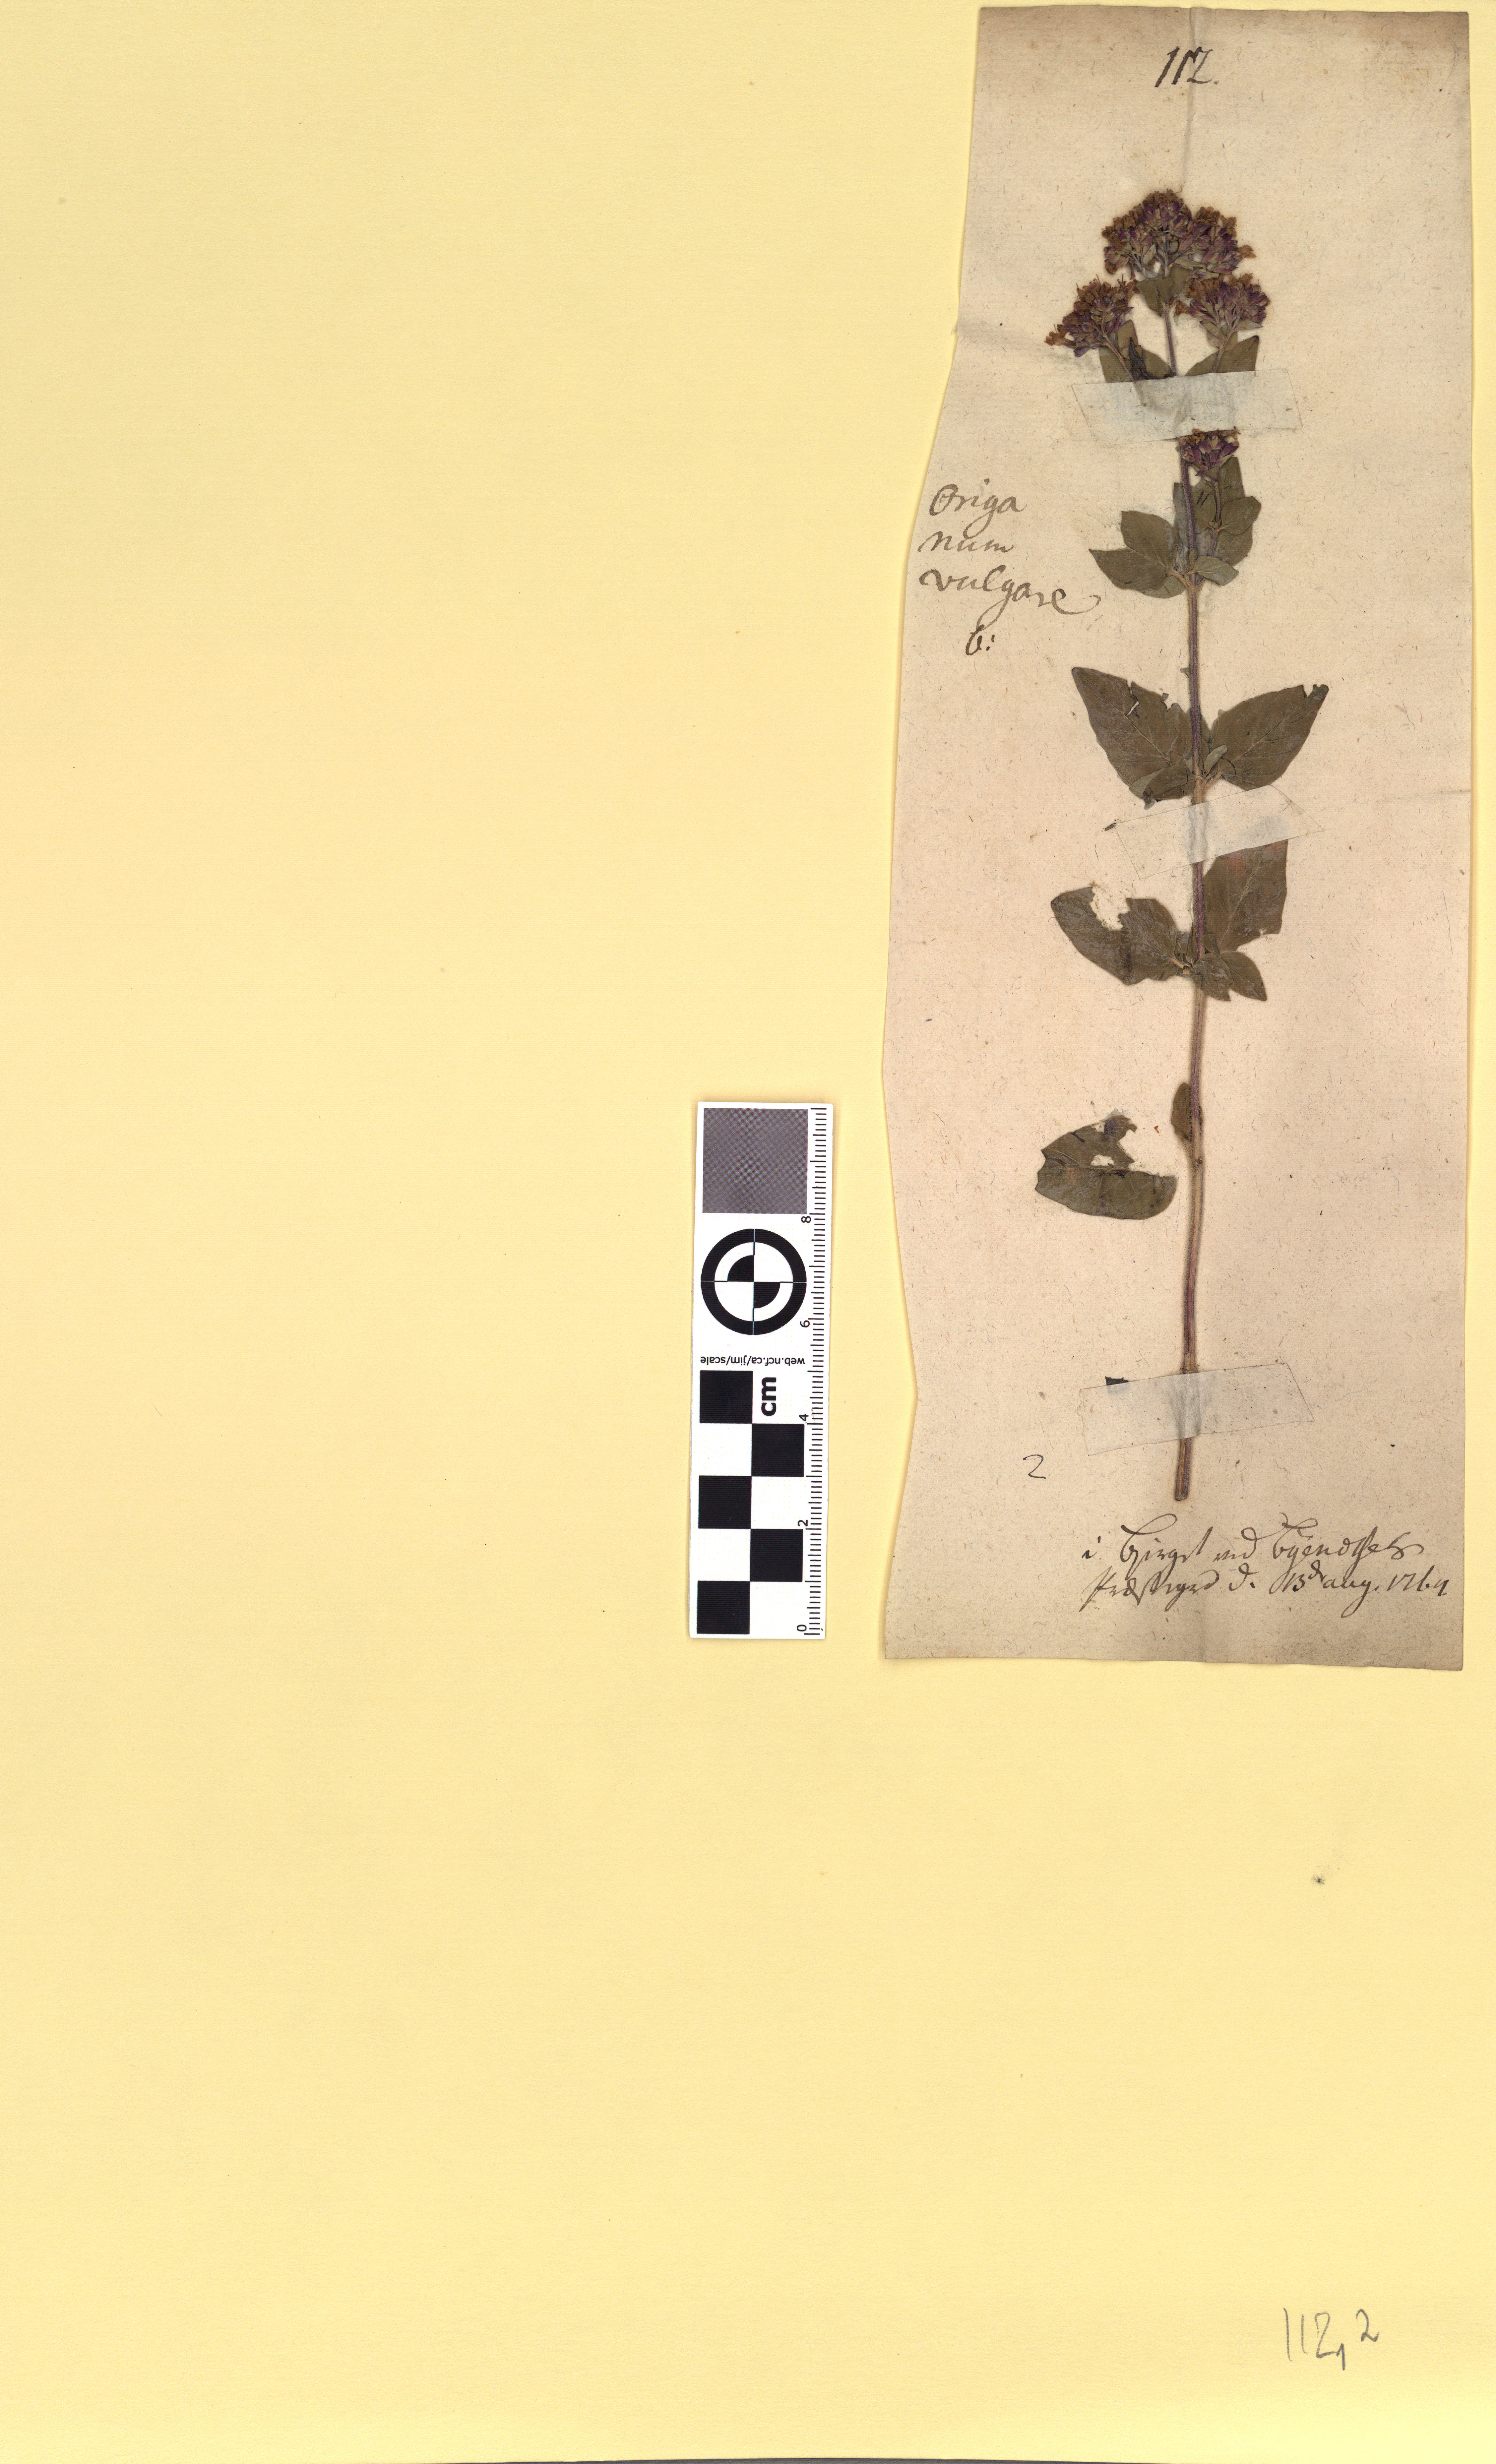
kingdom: Plantae
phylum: Tracheophyta
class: Magnoliopsida
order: Lamiales
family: Lamiaceae
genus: Origanum
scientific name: Origanum vulgare
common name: Wild marjoram
